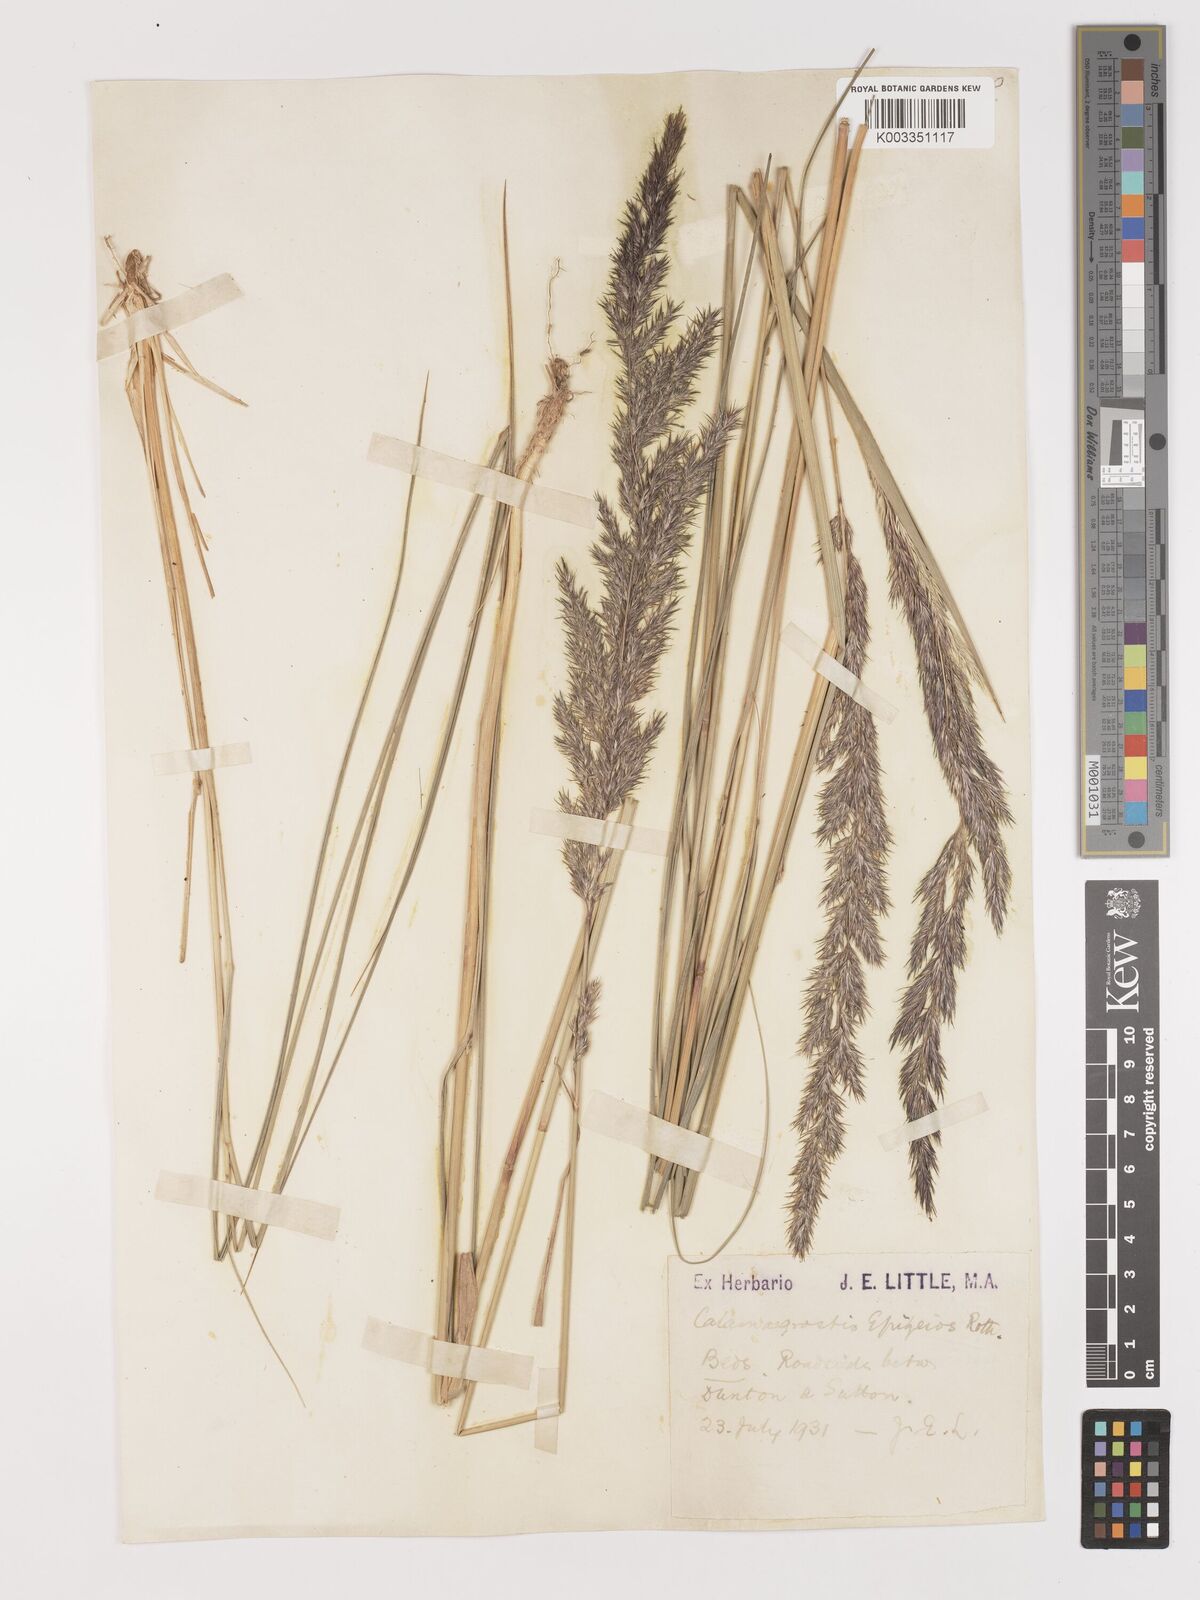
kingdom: Plantae
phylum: Tracheophyta
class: Liliopsida
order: Poales
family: Poaceae
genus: Calamagrostis
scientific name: Calamagrostis
